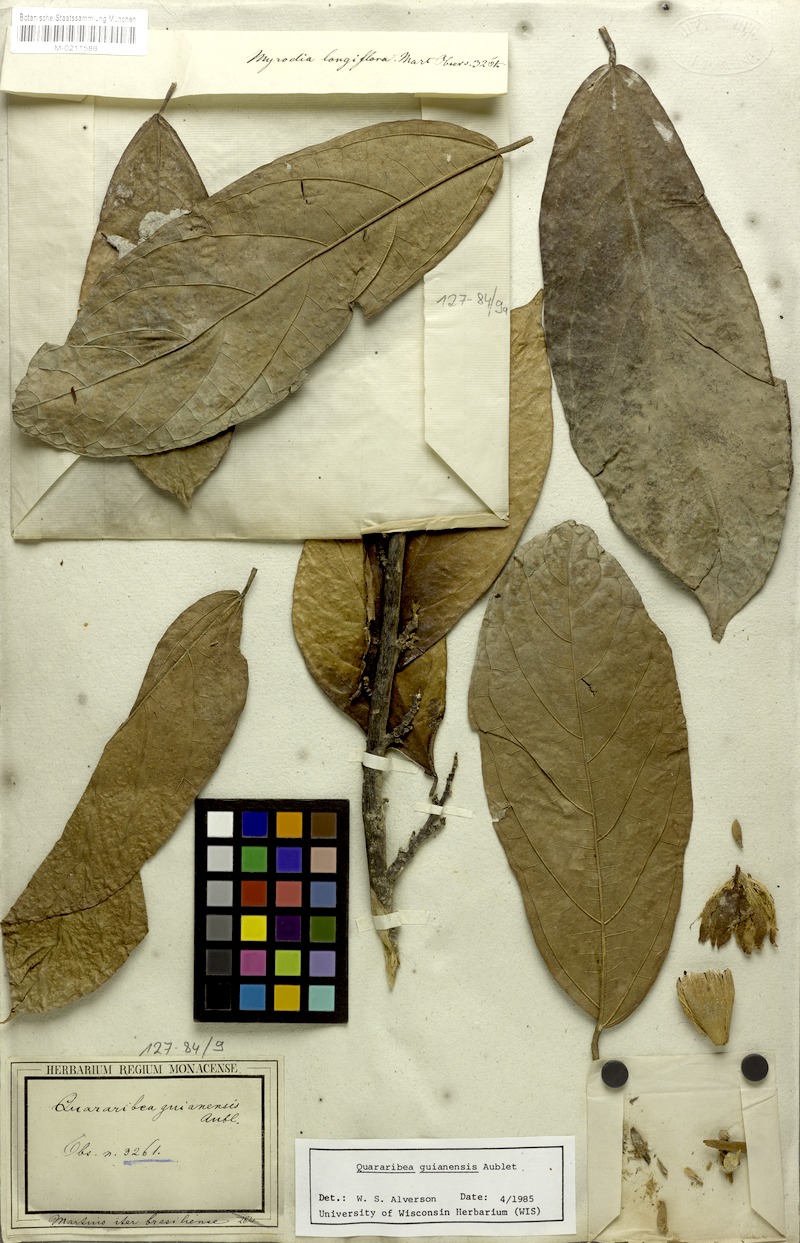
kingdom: Plantae
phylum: Tracheophyta
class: Magnoliopsida
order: Malvales
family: Malvaceae
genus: Quararibea
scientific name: Quararibea guianensis
